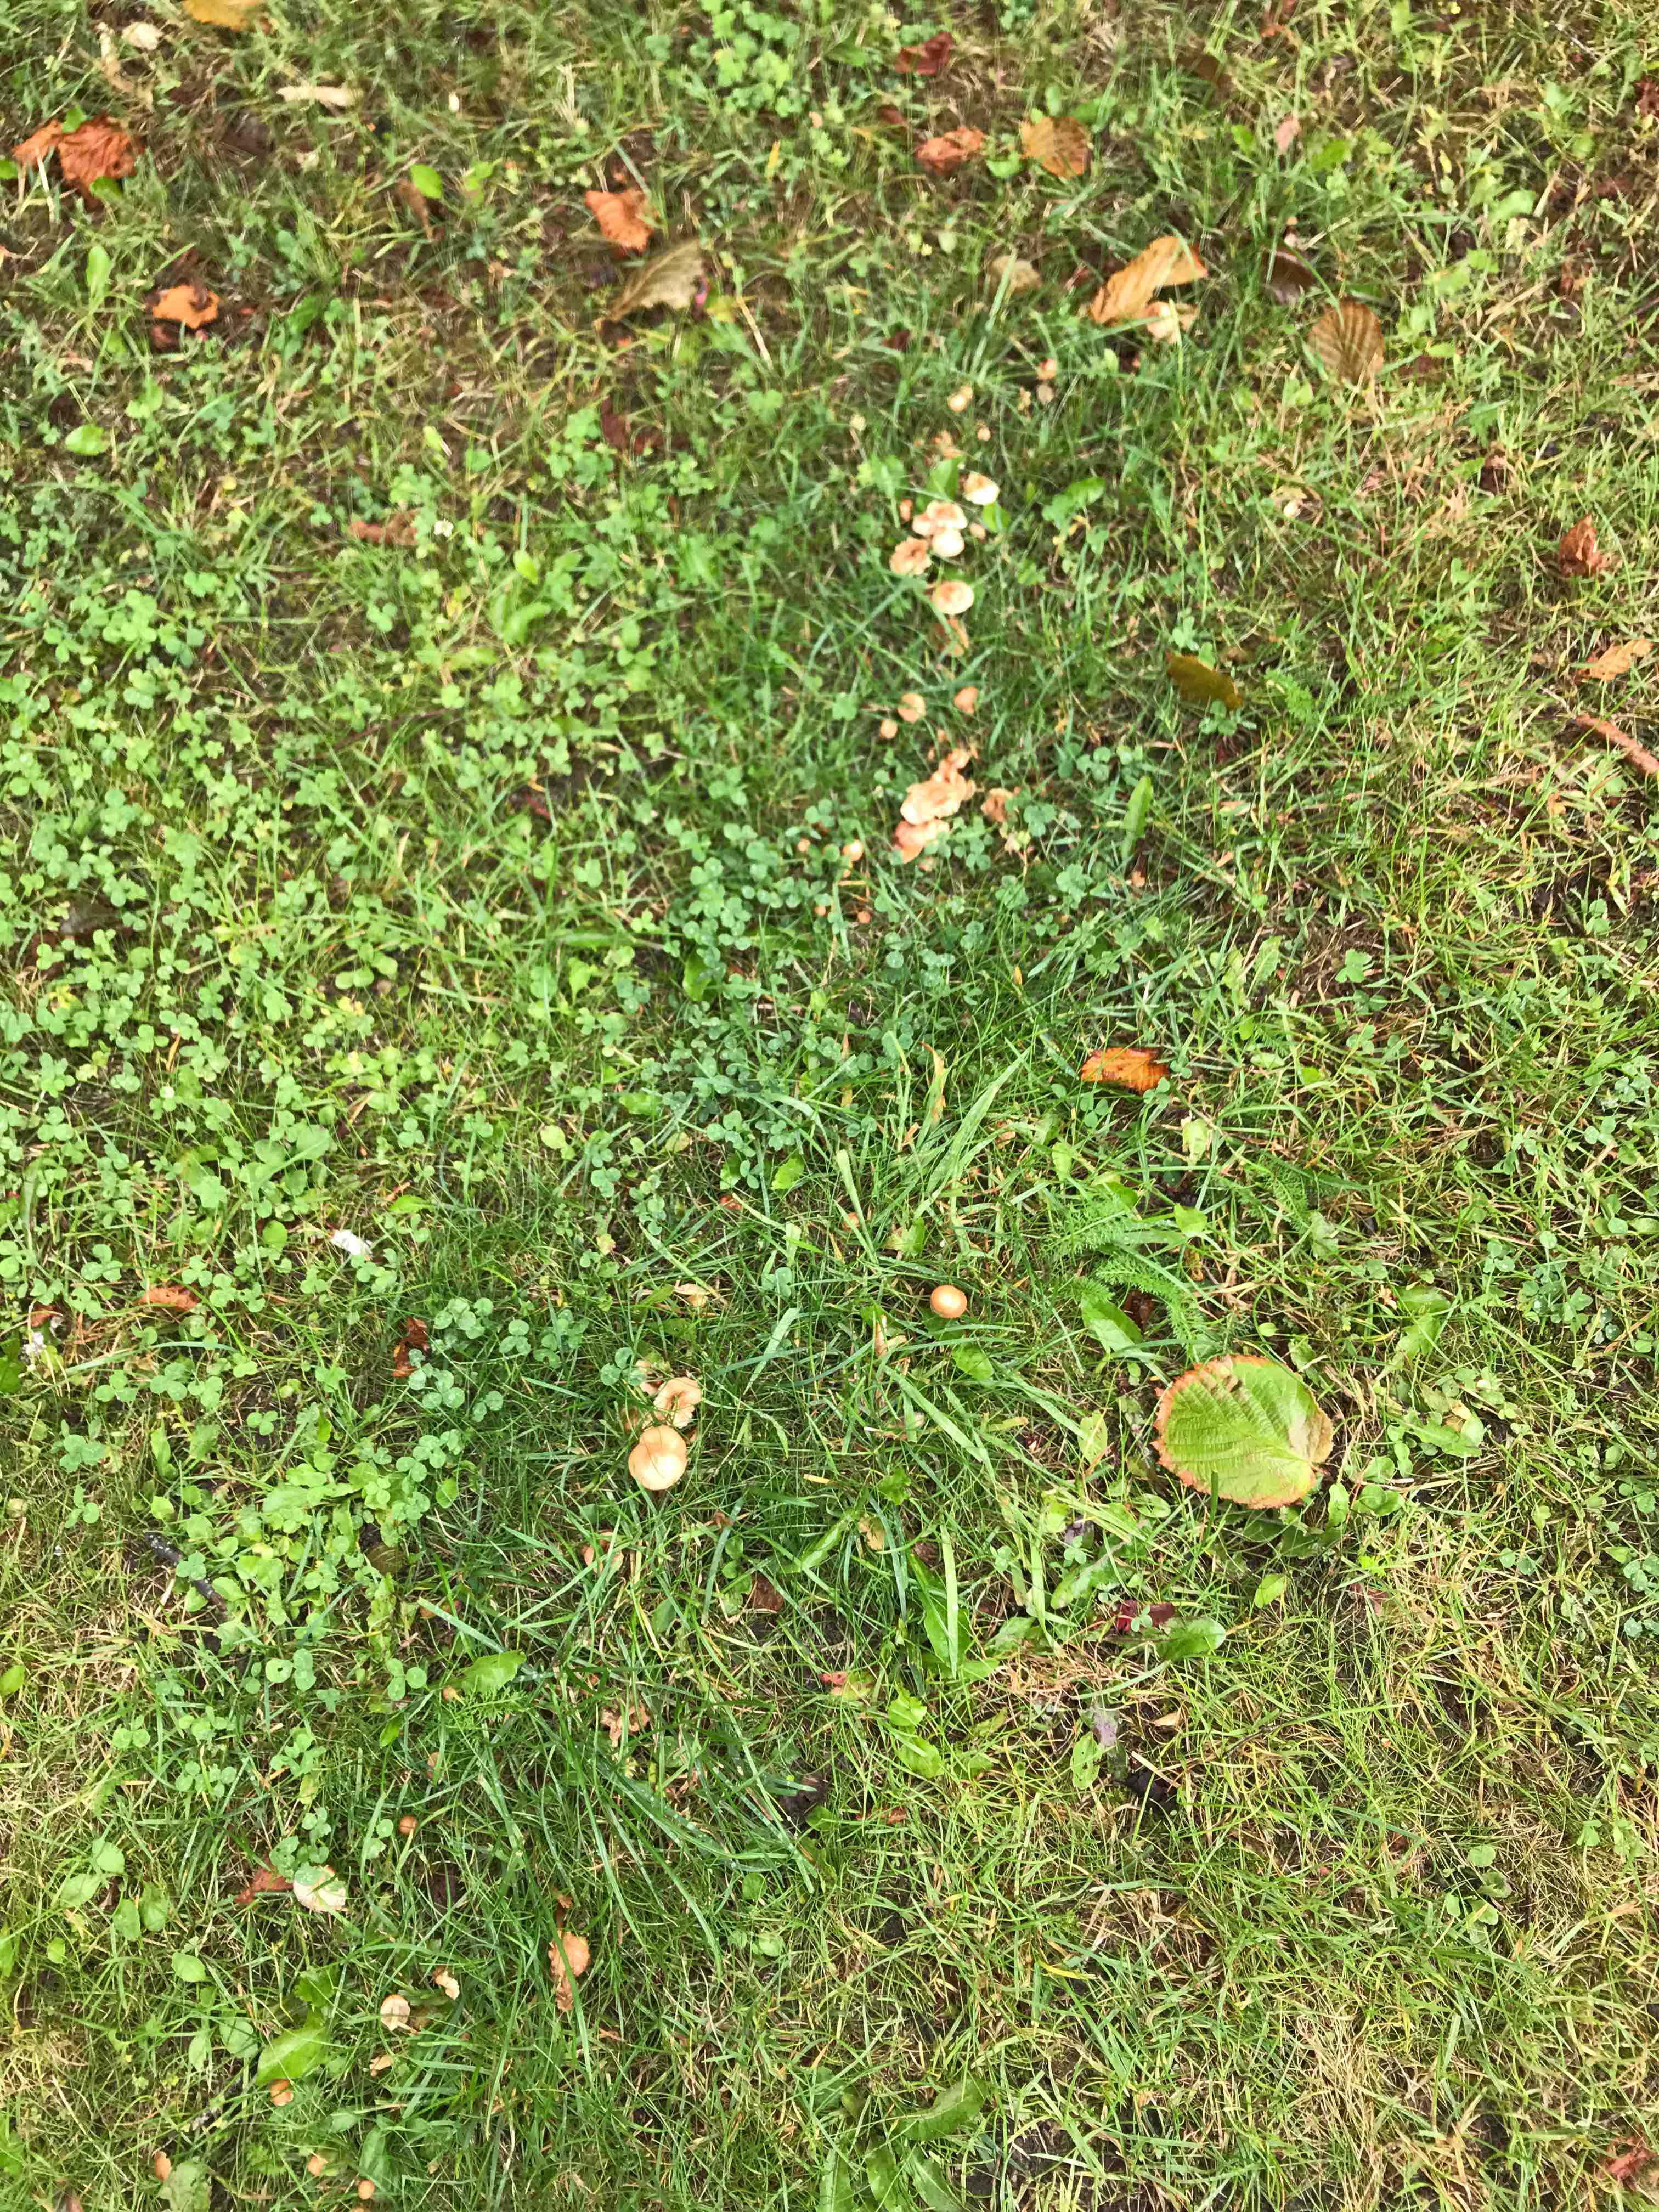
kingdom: Fungi
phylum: Basidiomycota
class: Agaricomycetes
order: Agaricales
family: Marasmiaceae
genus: Marasmius
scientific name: Marasmius oreades
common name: elledans-bruskhat
